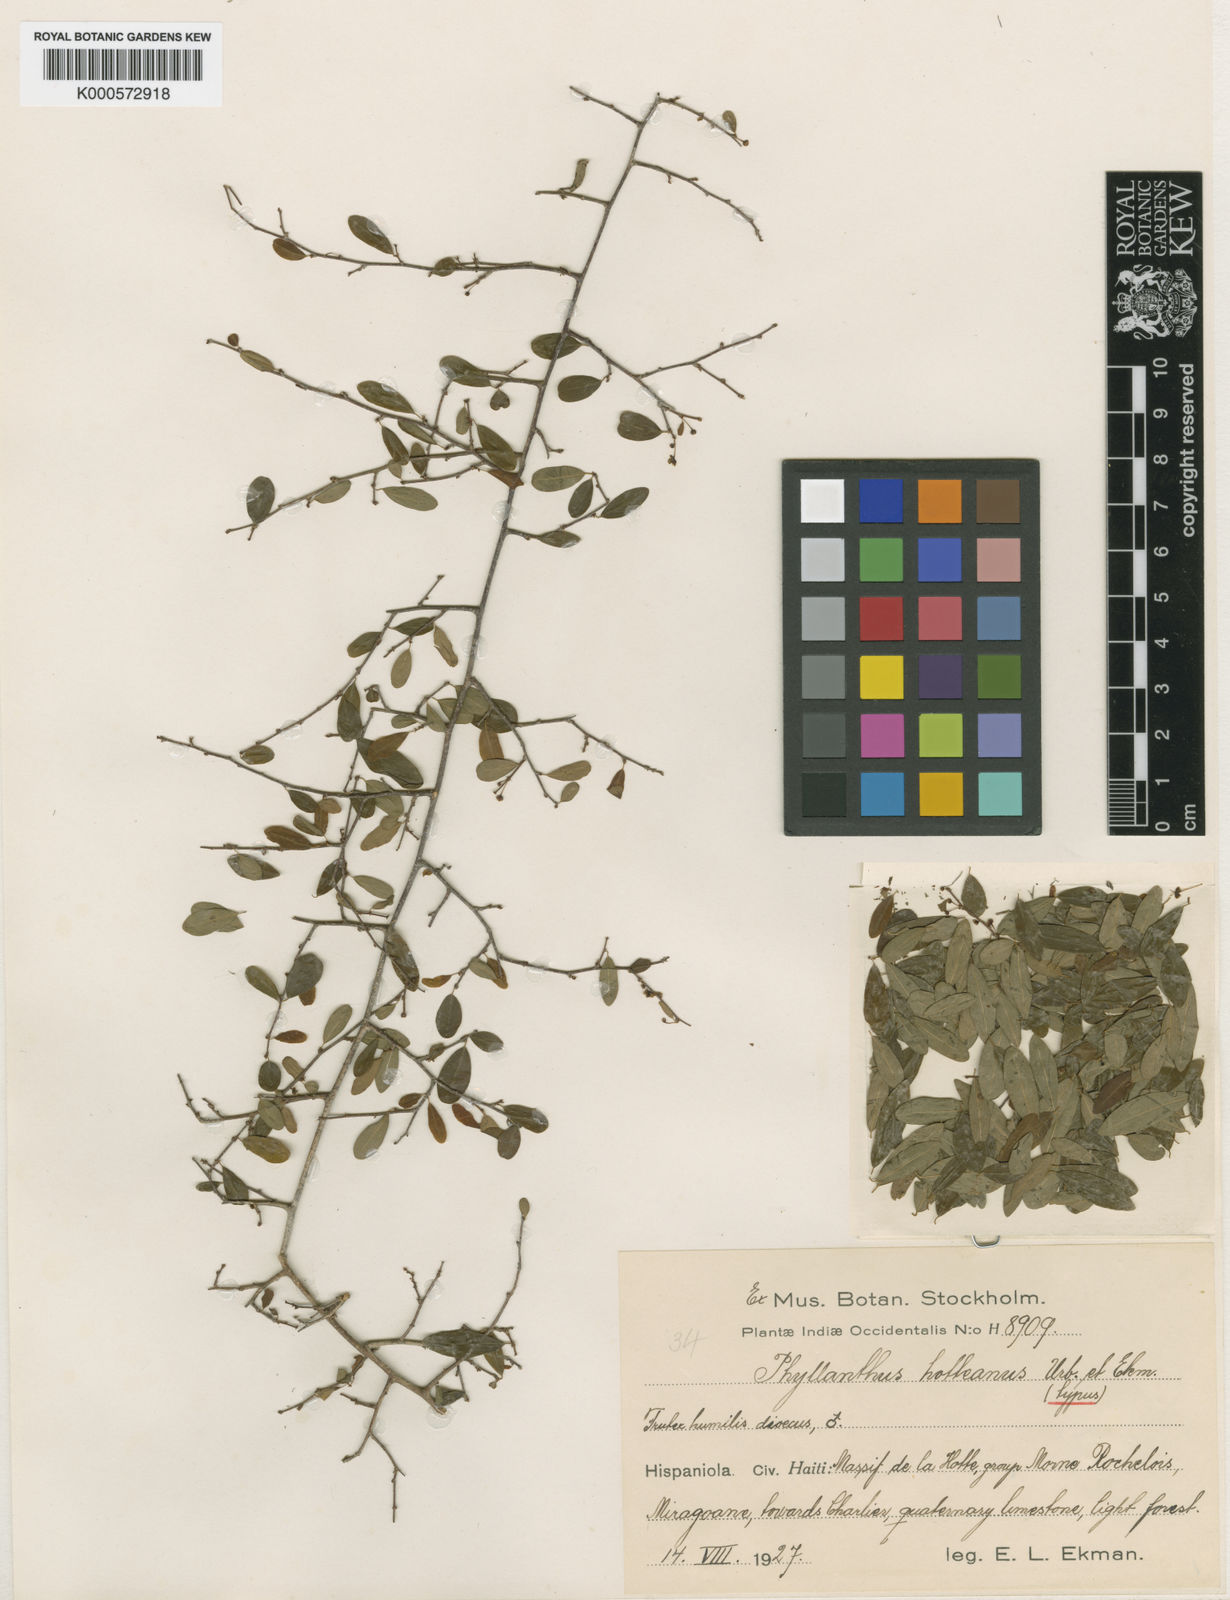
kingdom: Plantae
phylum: Tracheophyta
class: Magnoliopsida
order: Malpighiales
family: Phyllanthaceae
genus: Margaritaria
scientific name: Margaritaria hotteana
